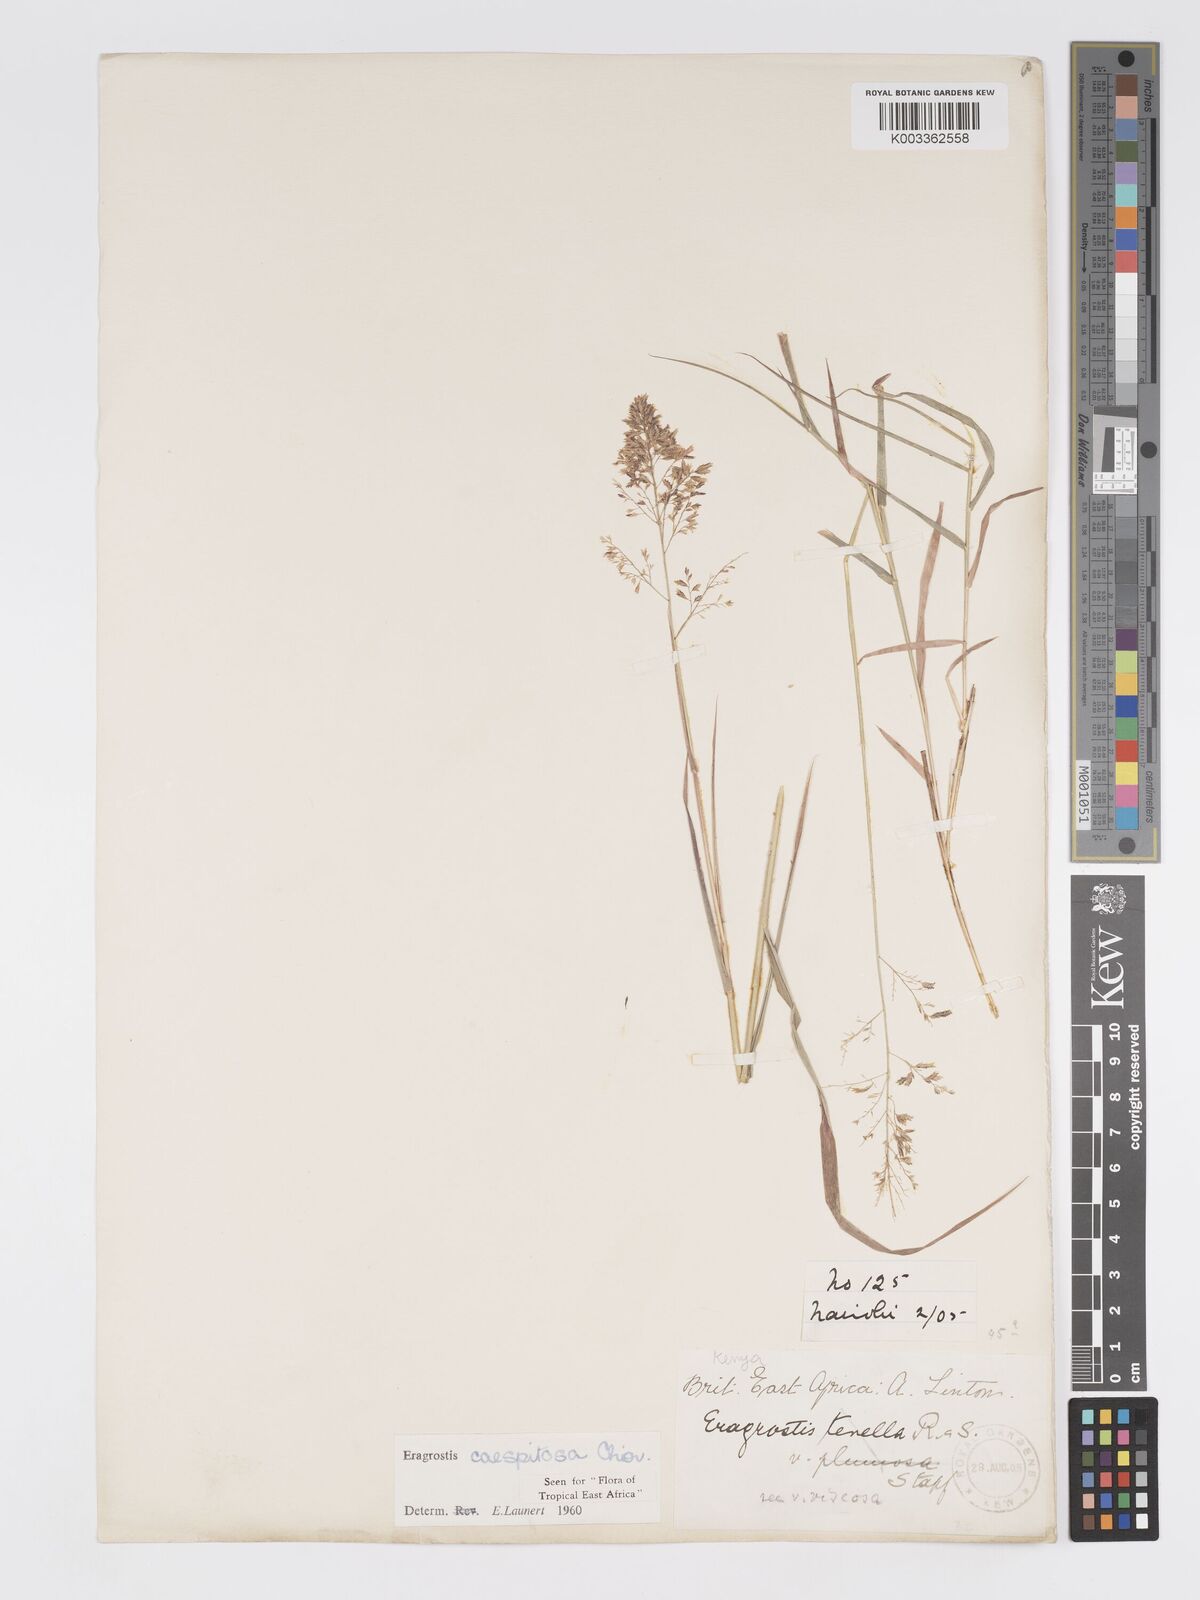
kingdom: Plantae
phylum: Tracheophyta
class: Liliopsida
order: Poales
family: Poaceae
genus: Eragrostis
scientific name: Eragrostis caespitosa
